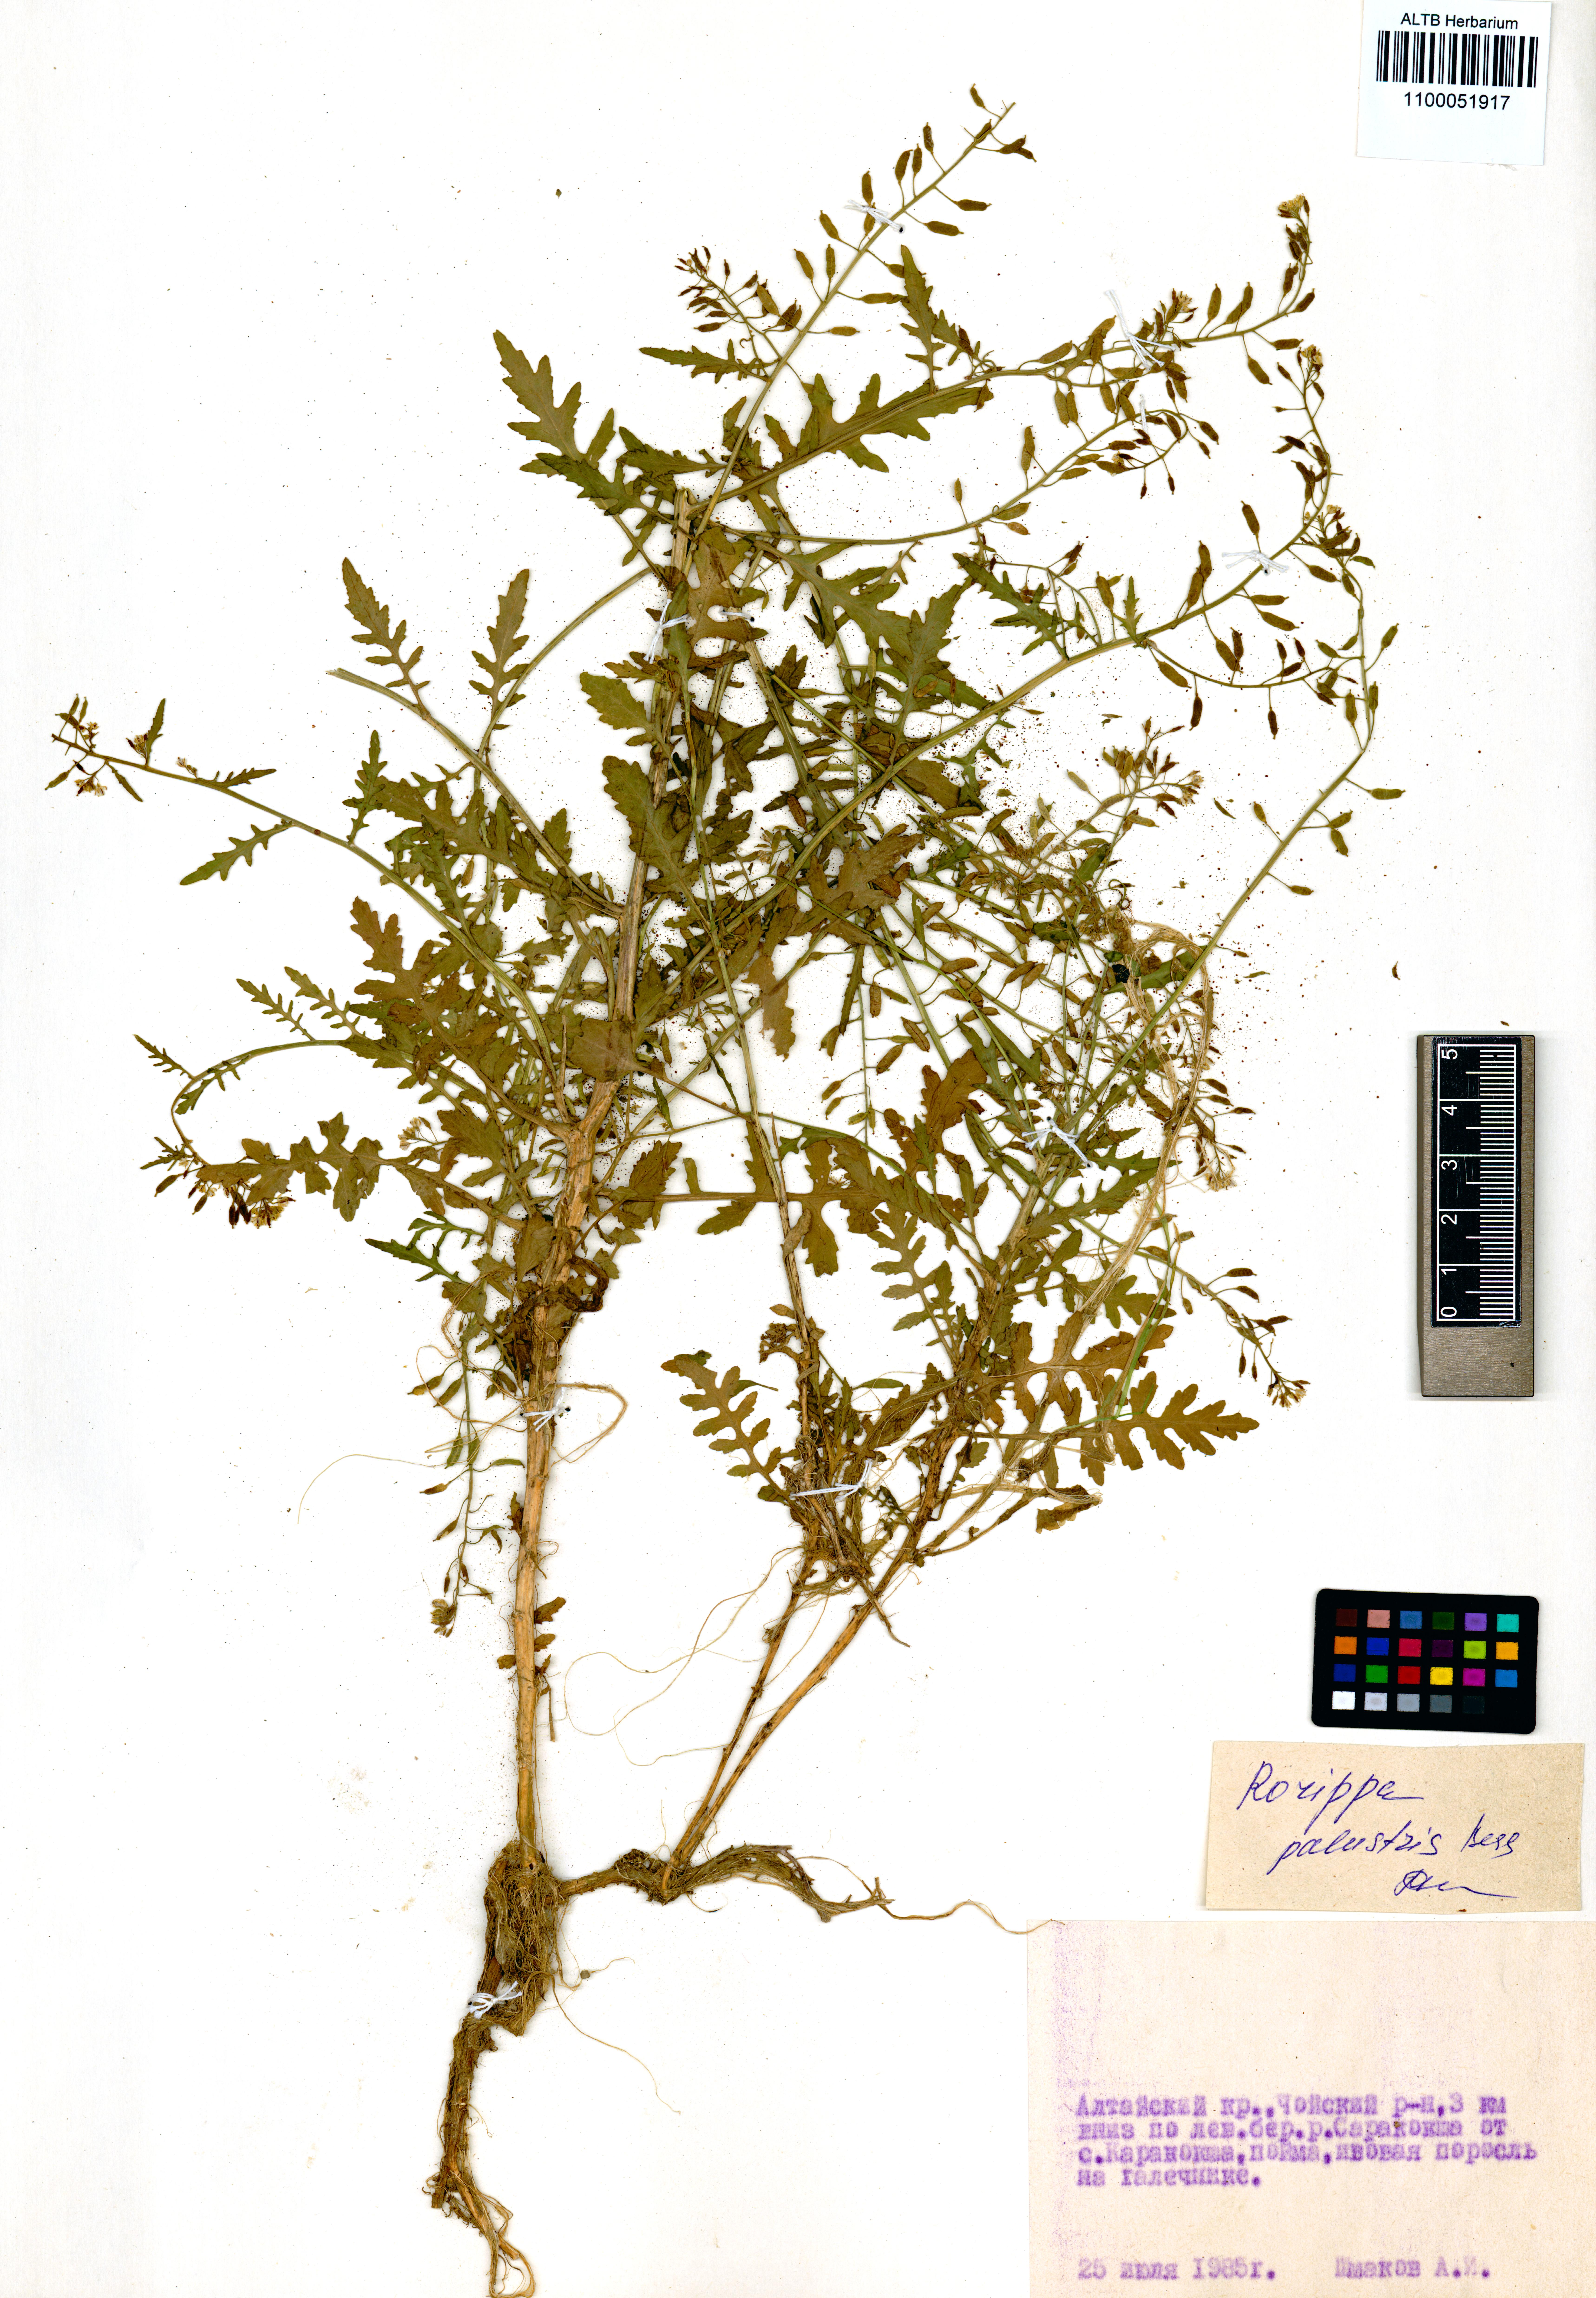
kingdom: Plantae
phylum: Tracheophyta
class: Magnoliopsida
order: Brassicales
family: Brassicaceae
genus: Rorippa
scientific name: Rorippa palustris
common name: Marsh yellow-cress
